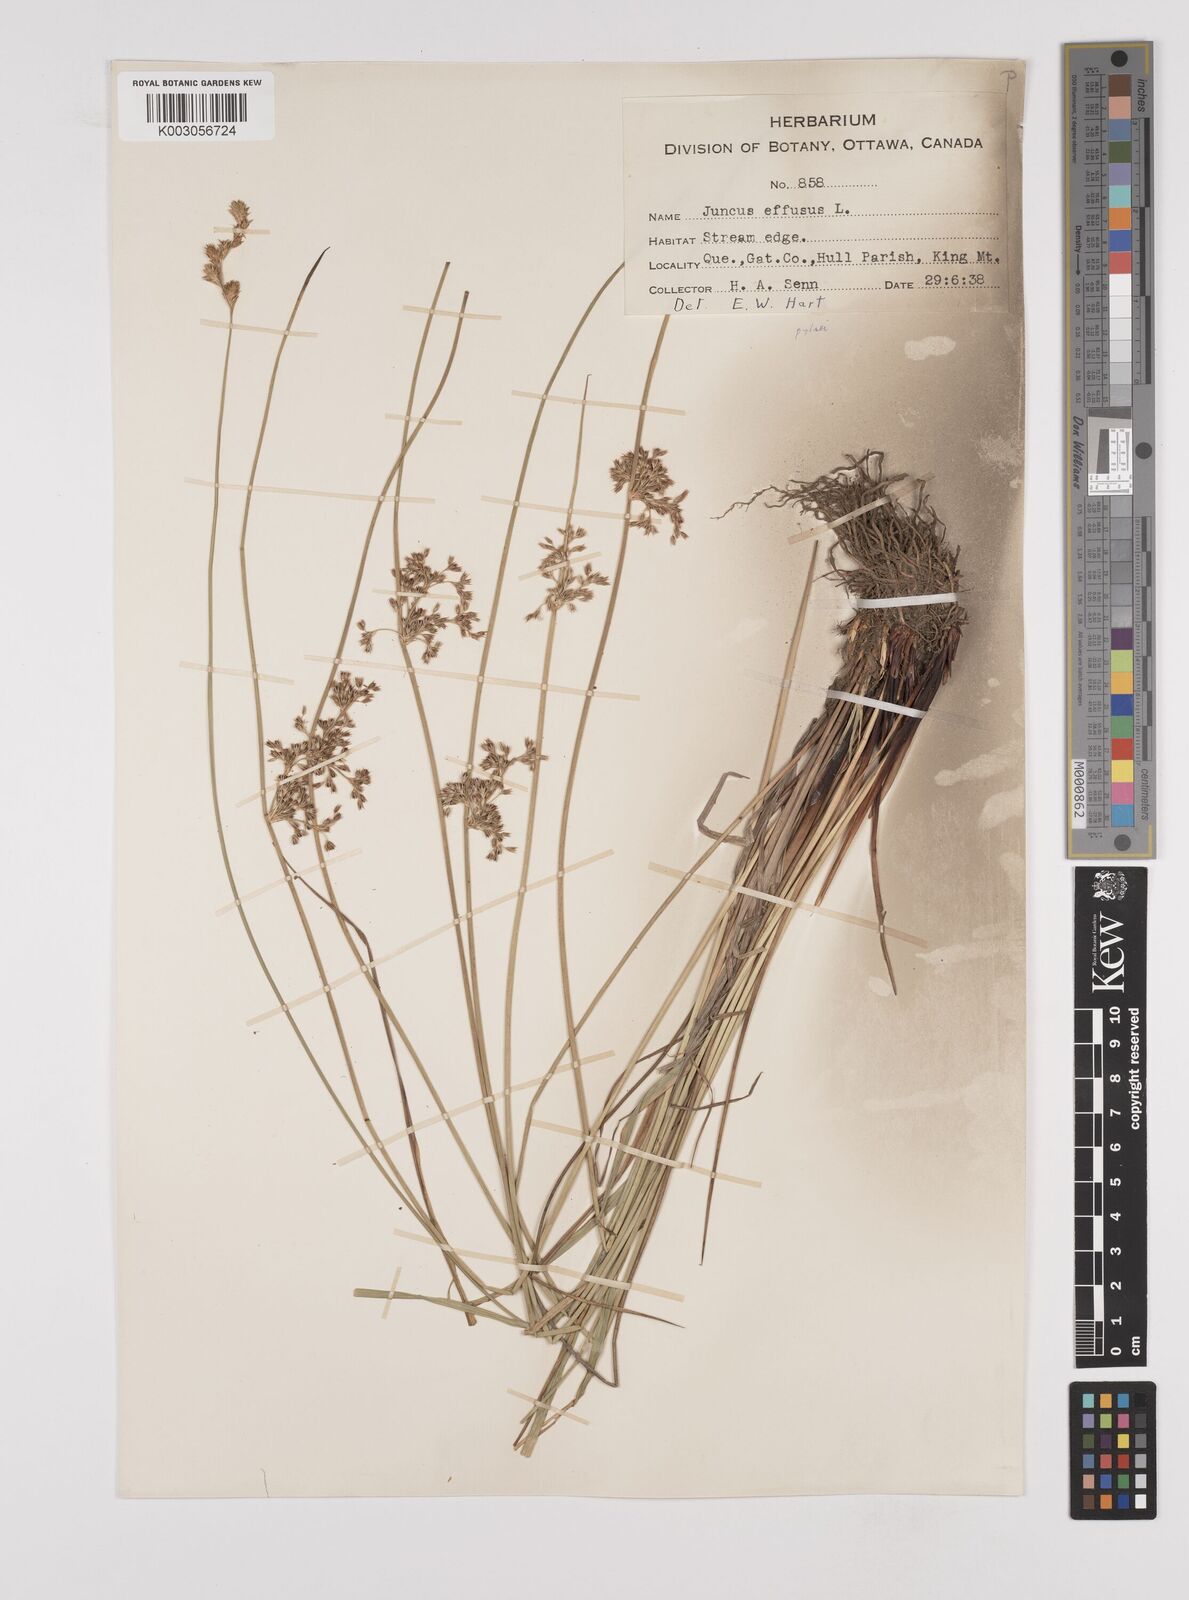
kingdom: Plantae
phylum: Tracheophyta
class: Liliopsida
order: Poales
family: Juncaceae
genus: Juncus
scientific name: Juncus pylaei
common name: Common rush
